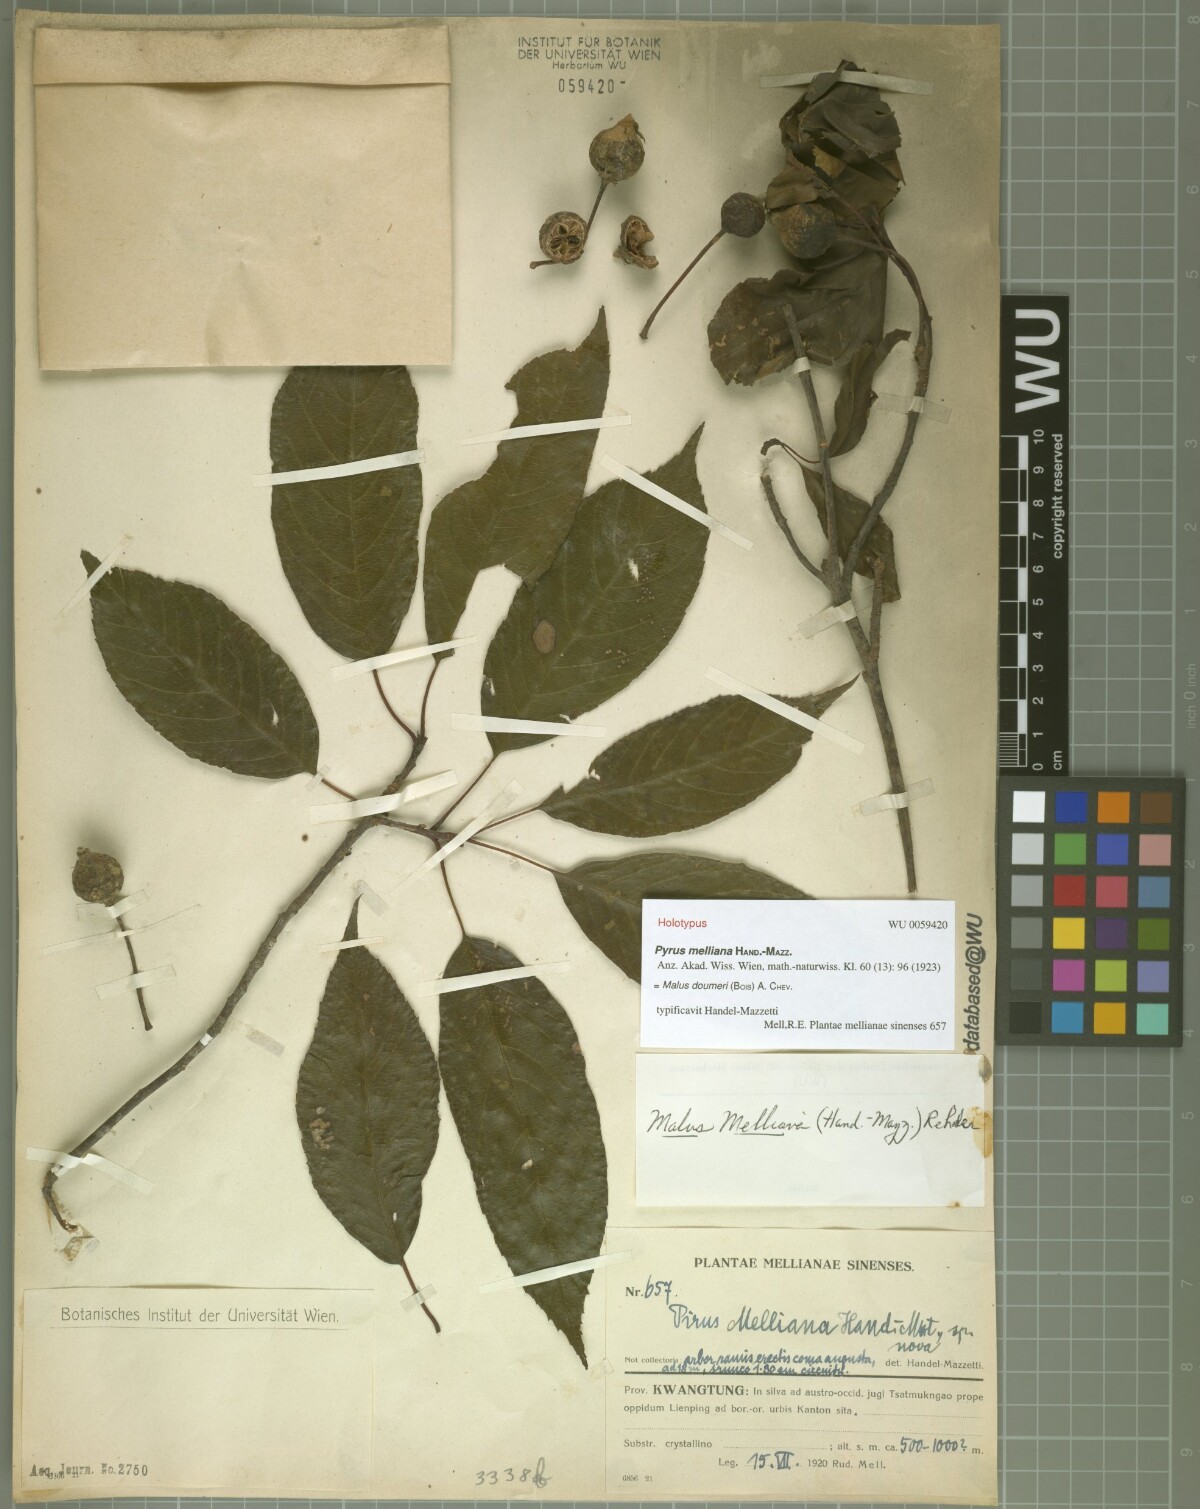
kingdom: Plantae
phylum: Tracheophyta
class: Magnoliopsida
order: Rosales
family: Rosaceae
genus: Malus
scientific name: Malus doumeri
